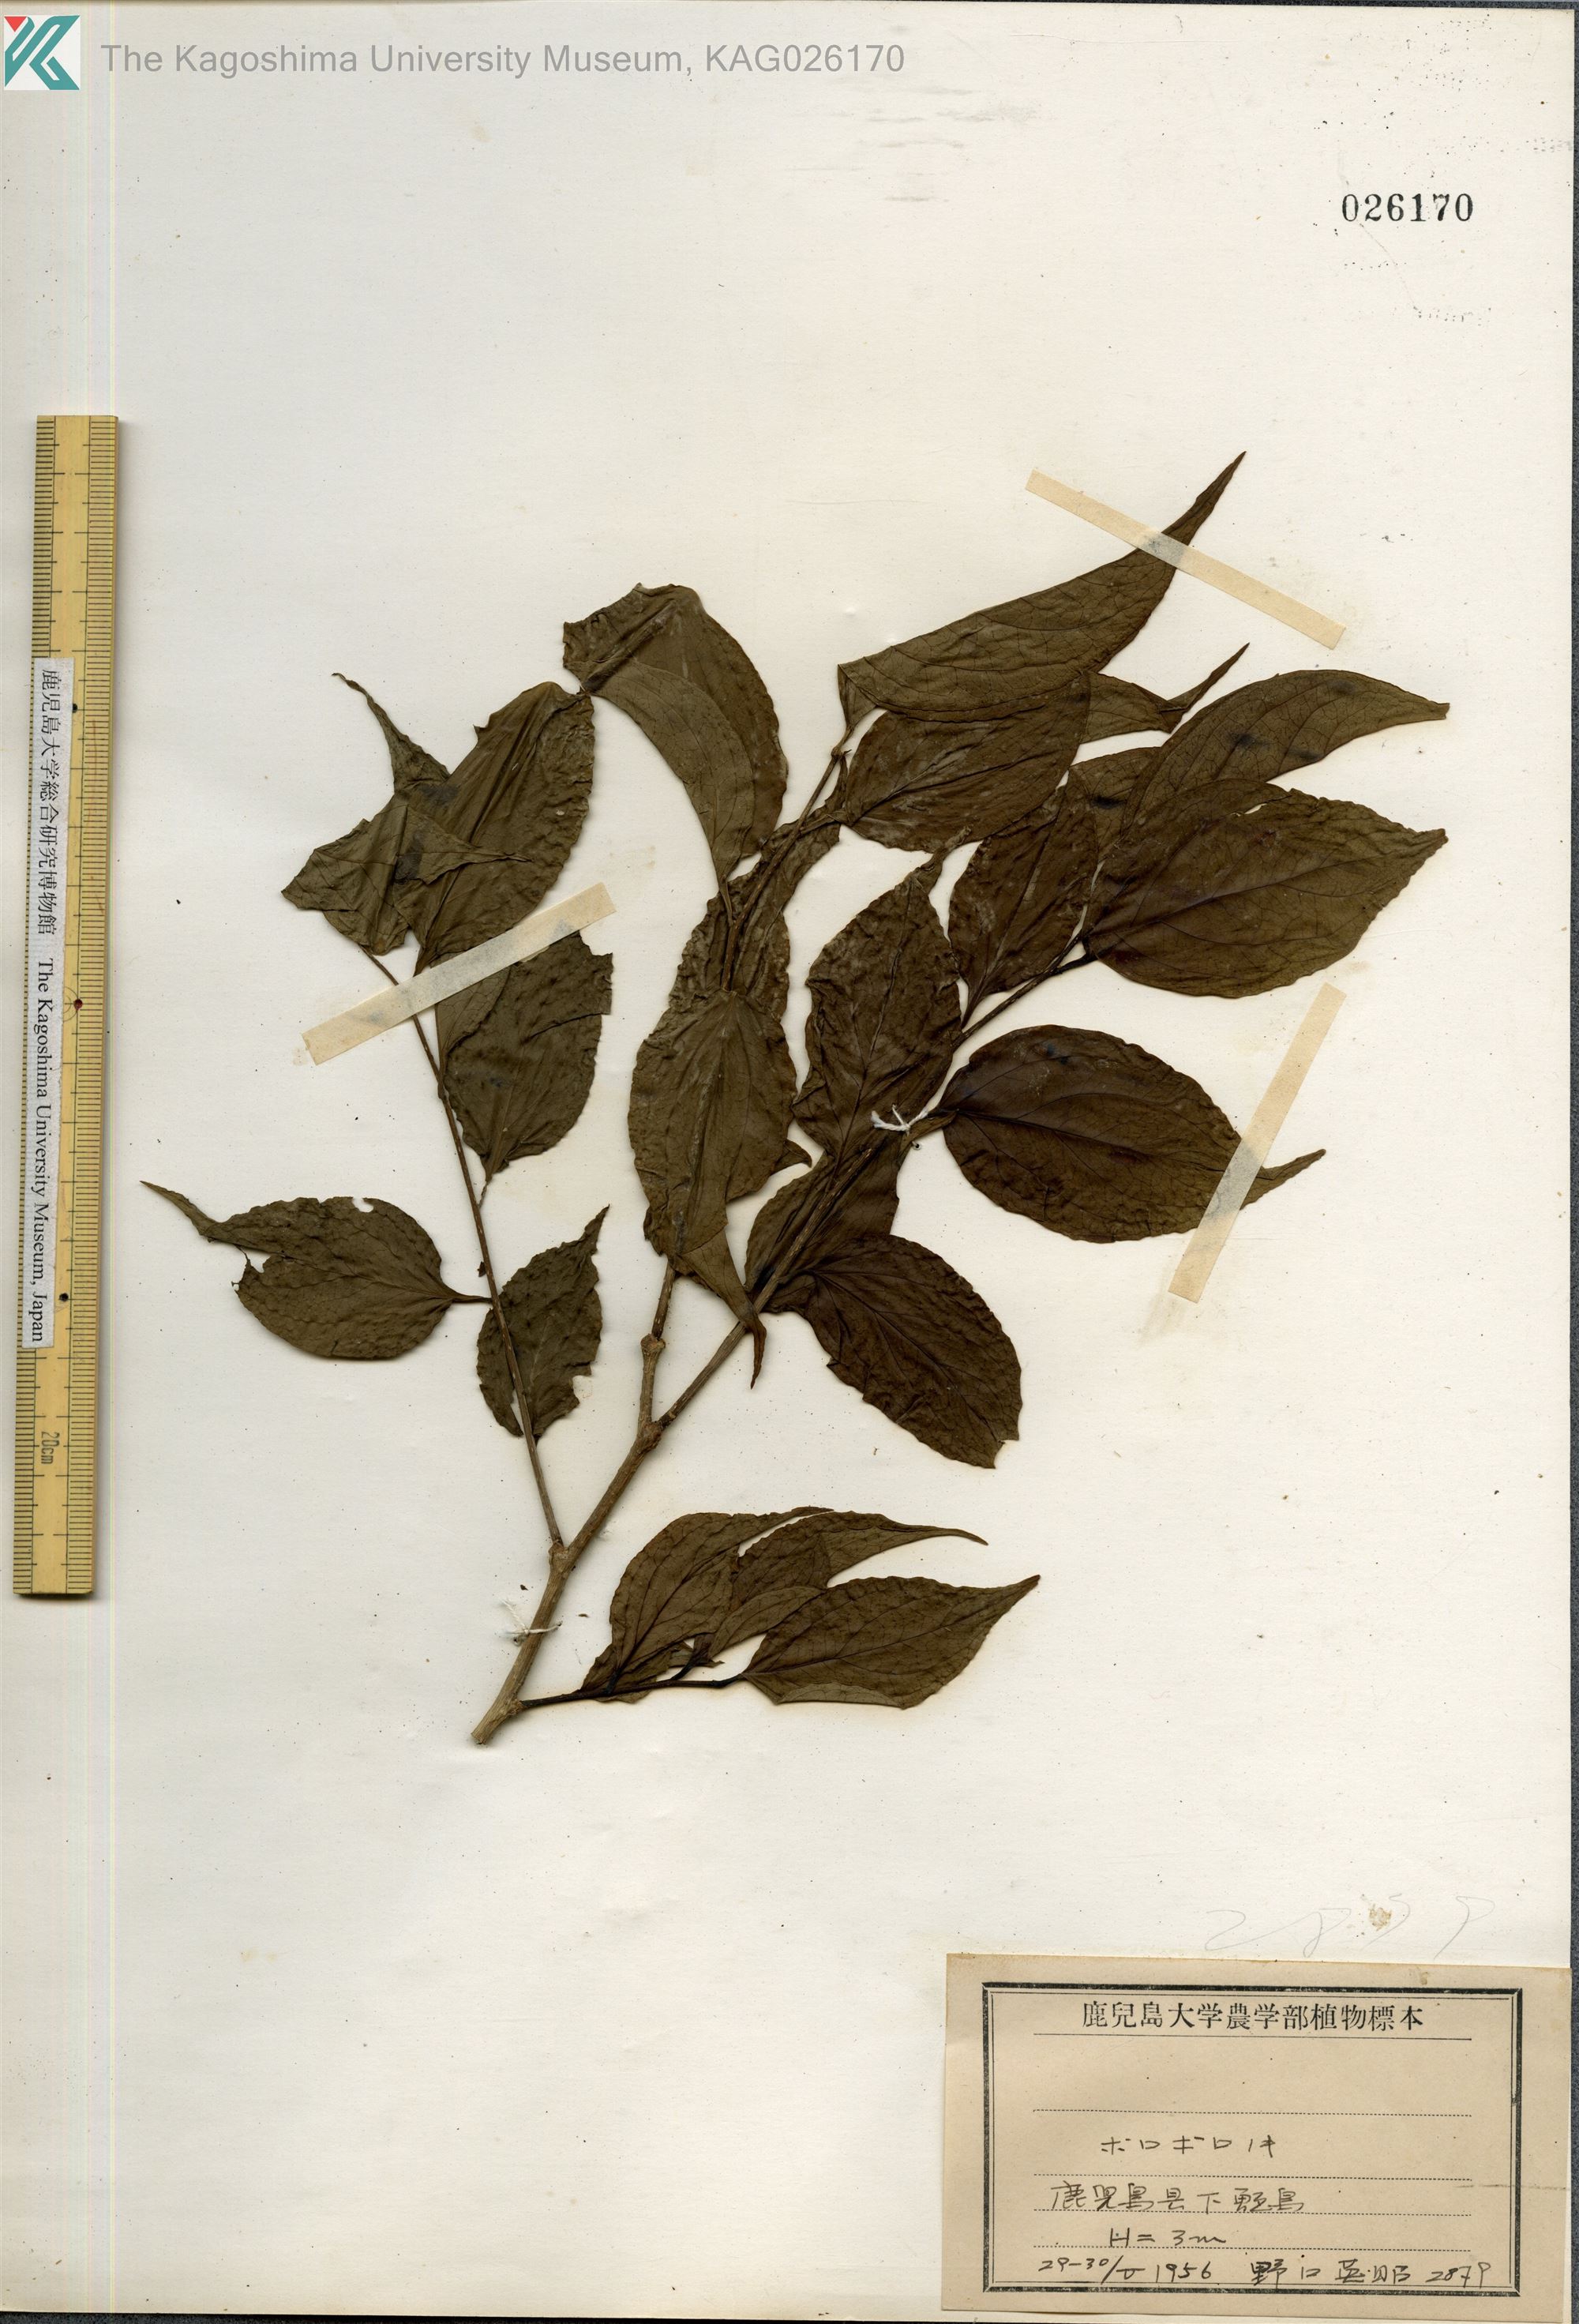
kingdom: Plantae
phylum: Tracheophyta
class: Magnoliopsida
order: Santalales
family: Schoepfiaceae
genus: Schoepfia
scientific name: Schoepfia jasminodora
